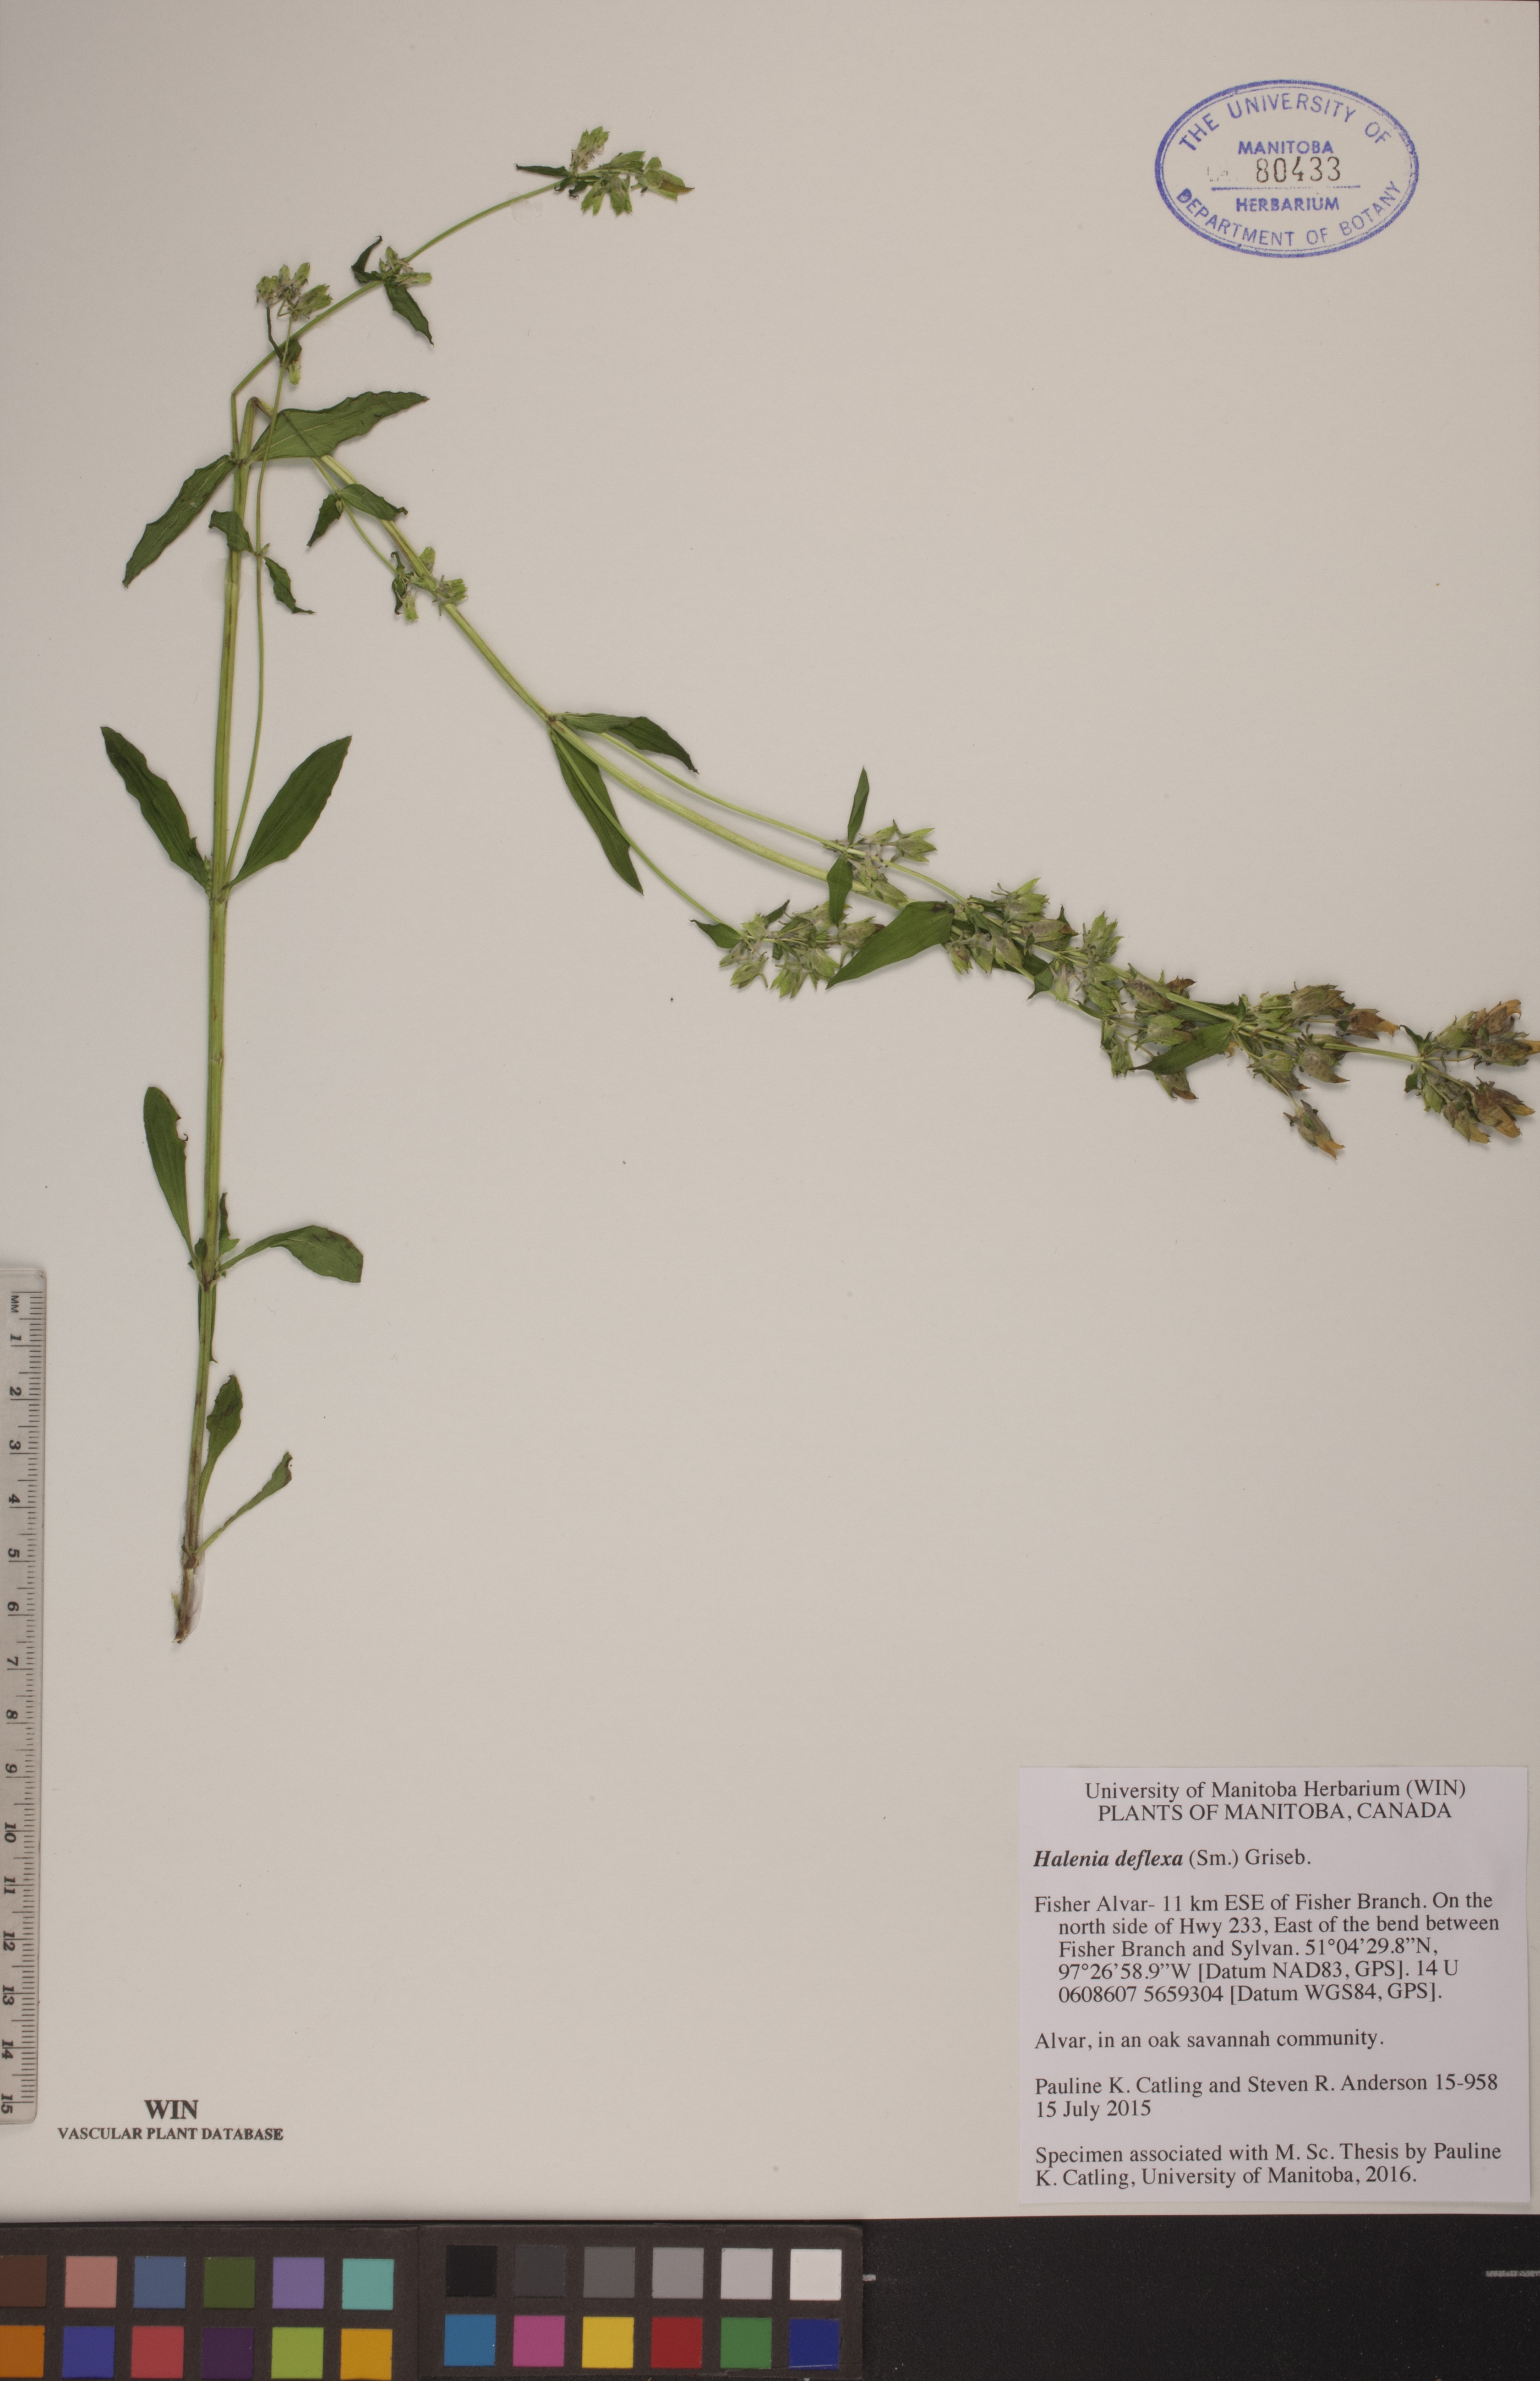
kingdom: Plantae
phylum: Tracheophyta
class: Magnoliopsida
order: Gentianales
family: Gentianaceae
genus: Halenia
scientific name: Halenia deflexa
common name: American spurred gentian
